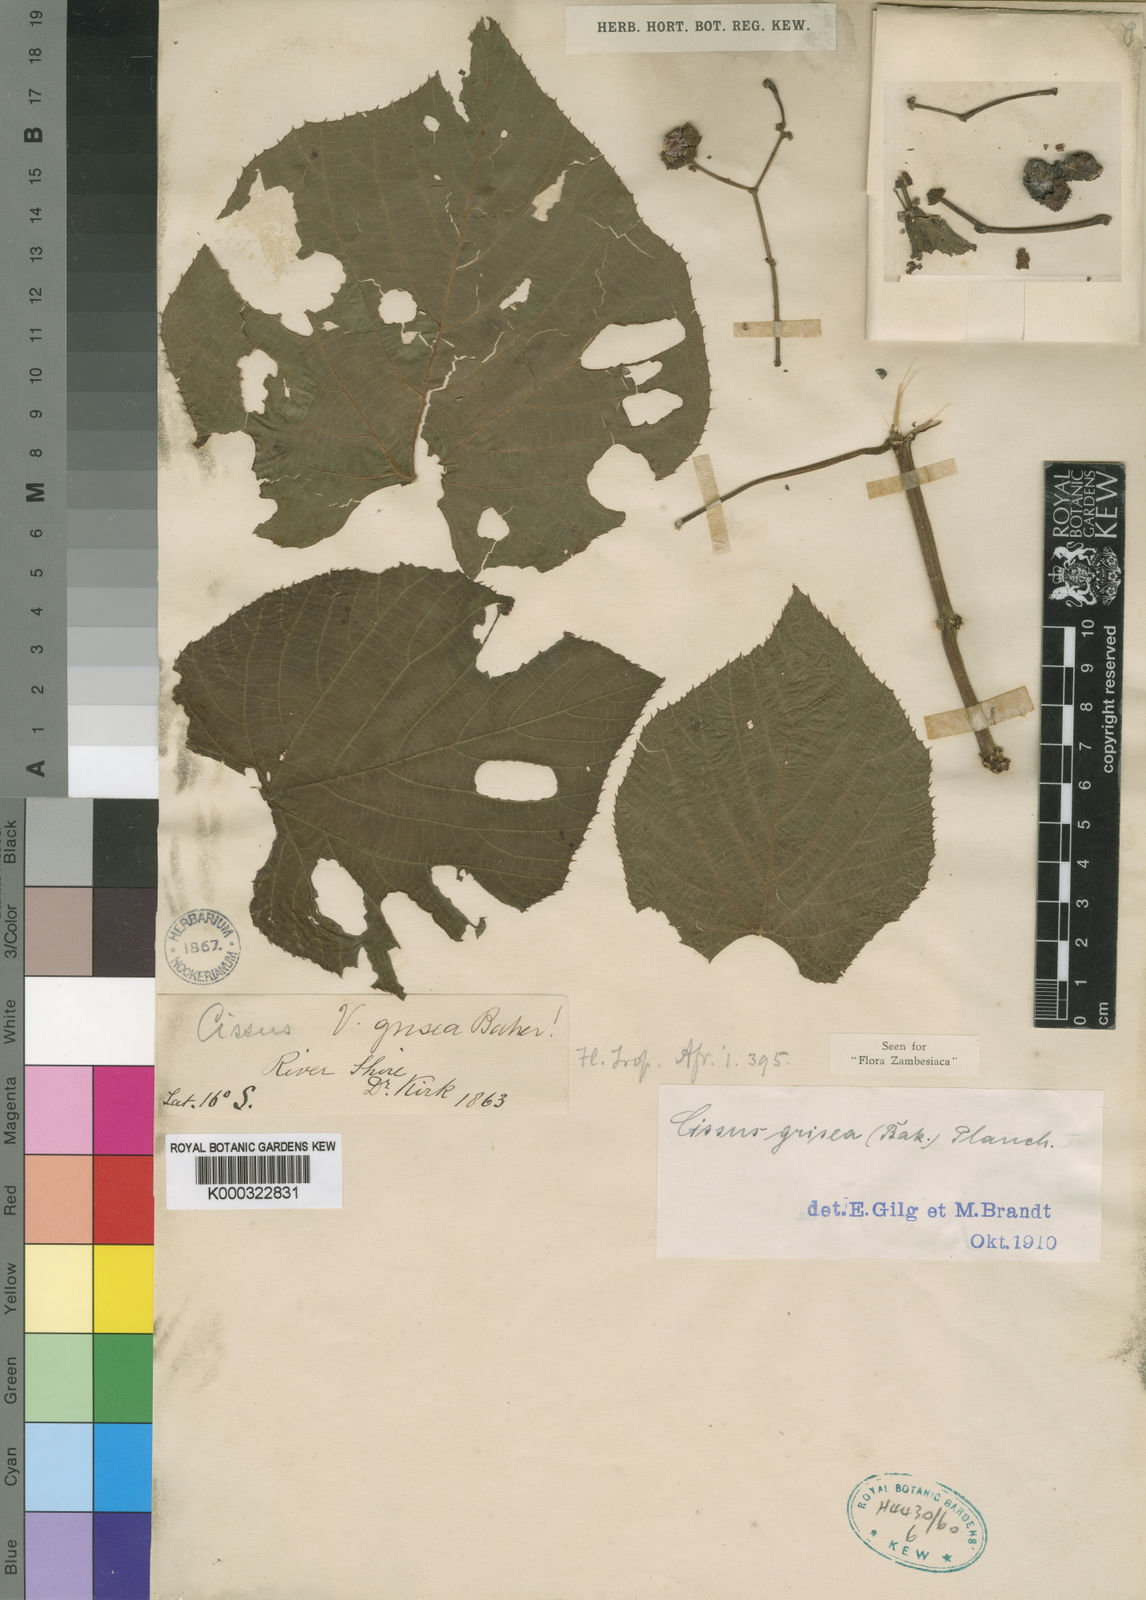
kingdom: Plantae
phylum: Tracheophyta
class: Magnoliopsida
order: Vitales
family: Vitaceae
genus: Cissus
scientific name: Cissus grisea
